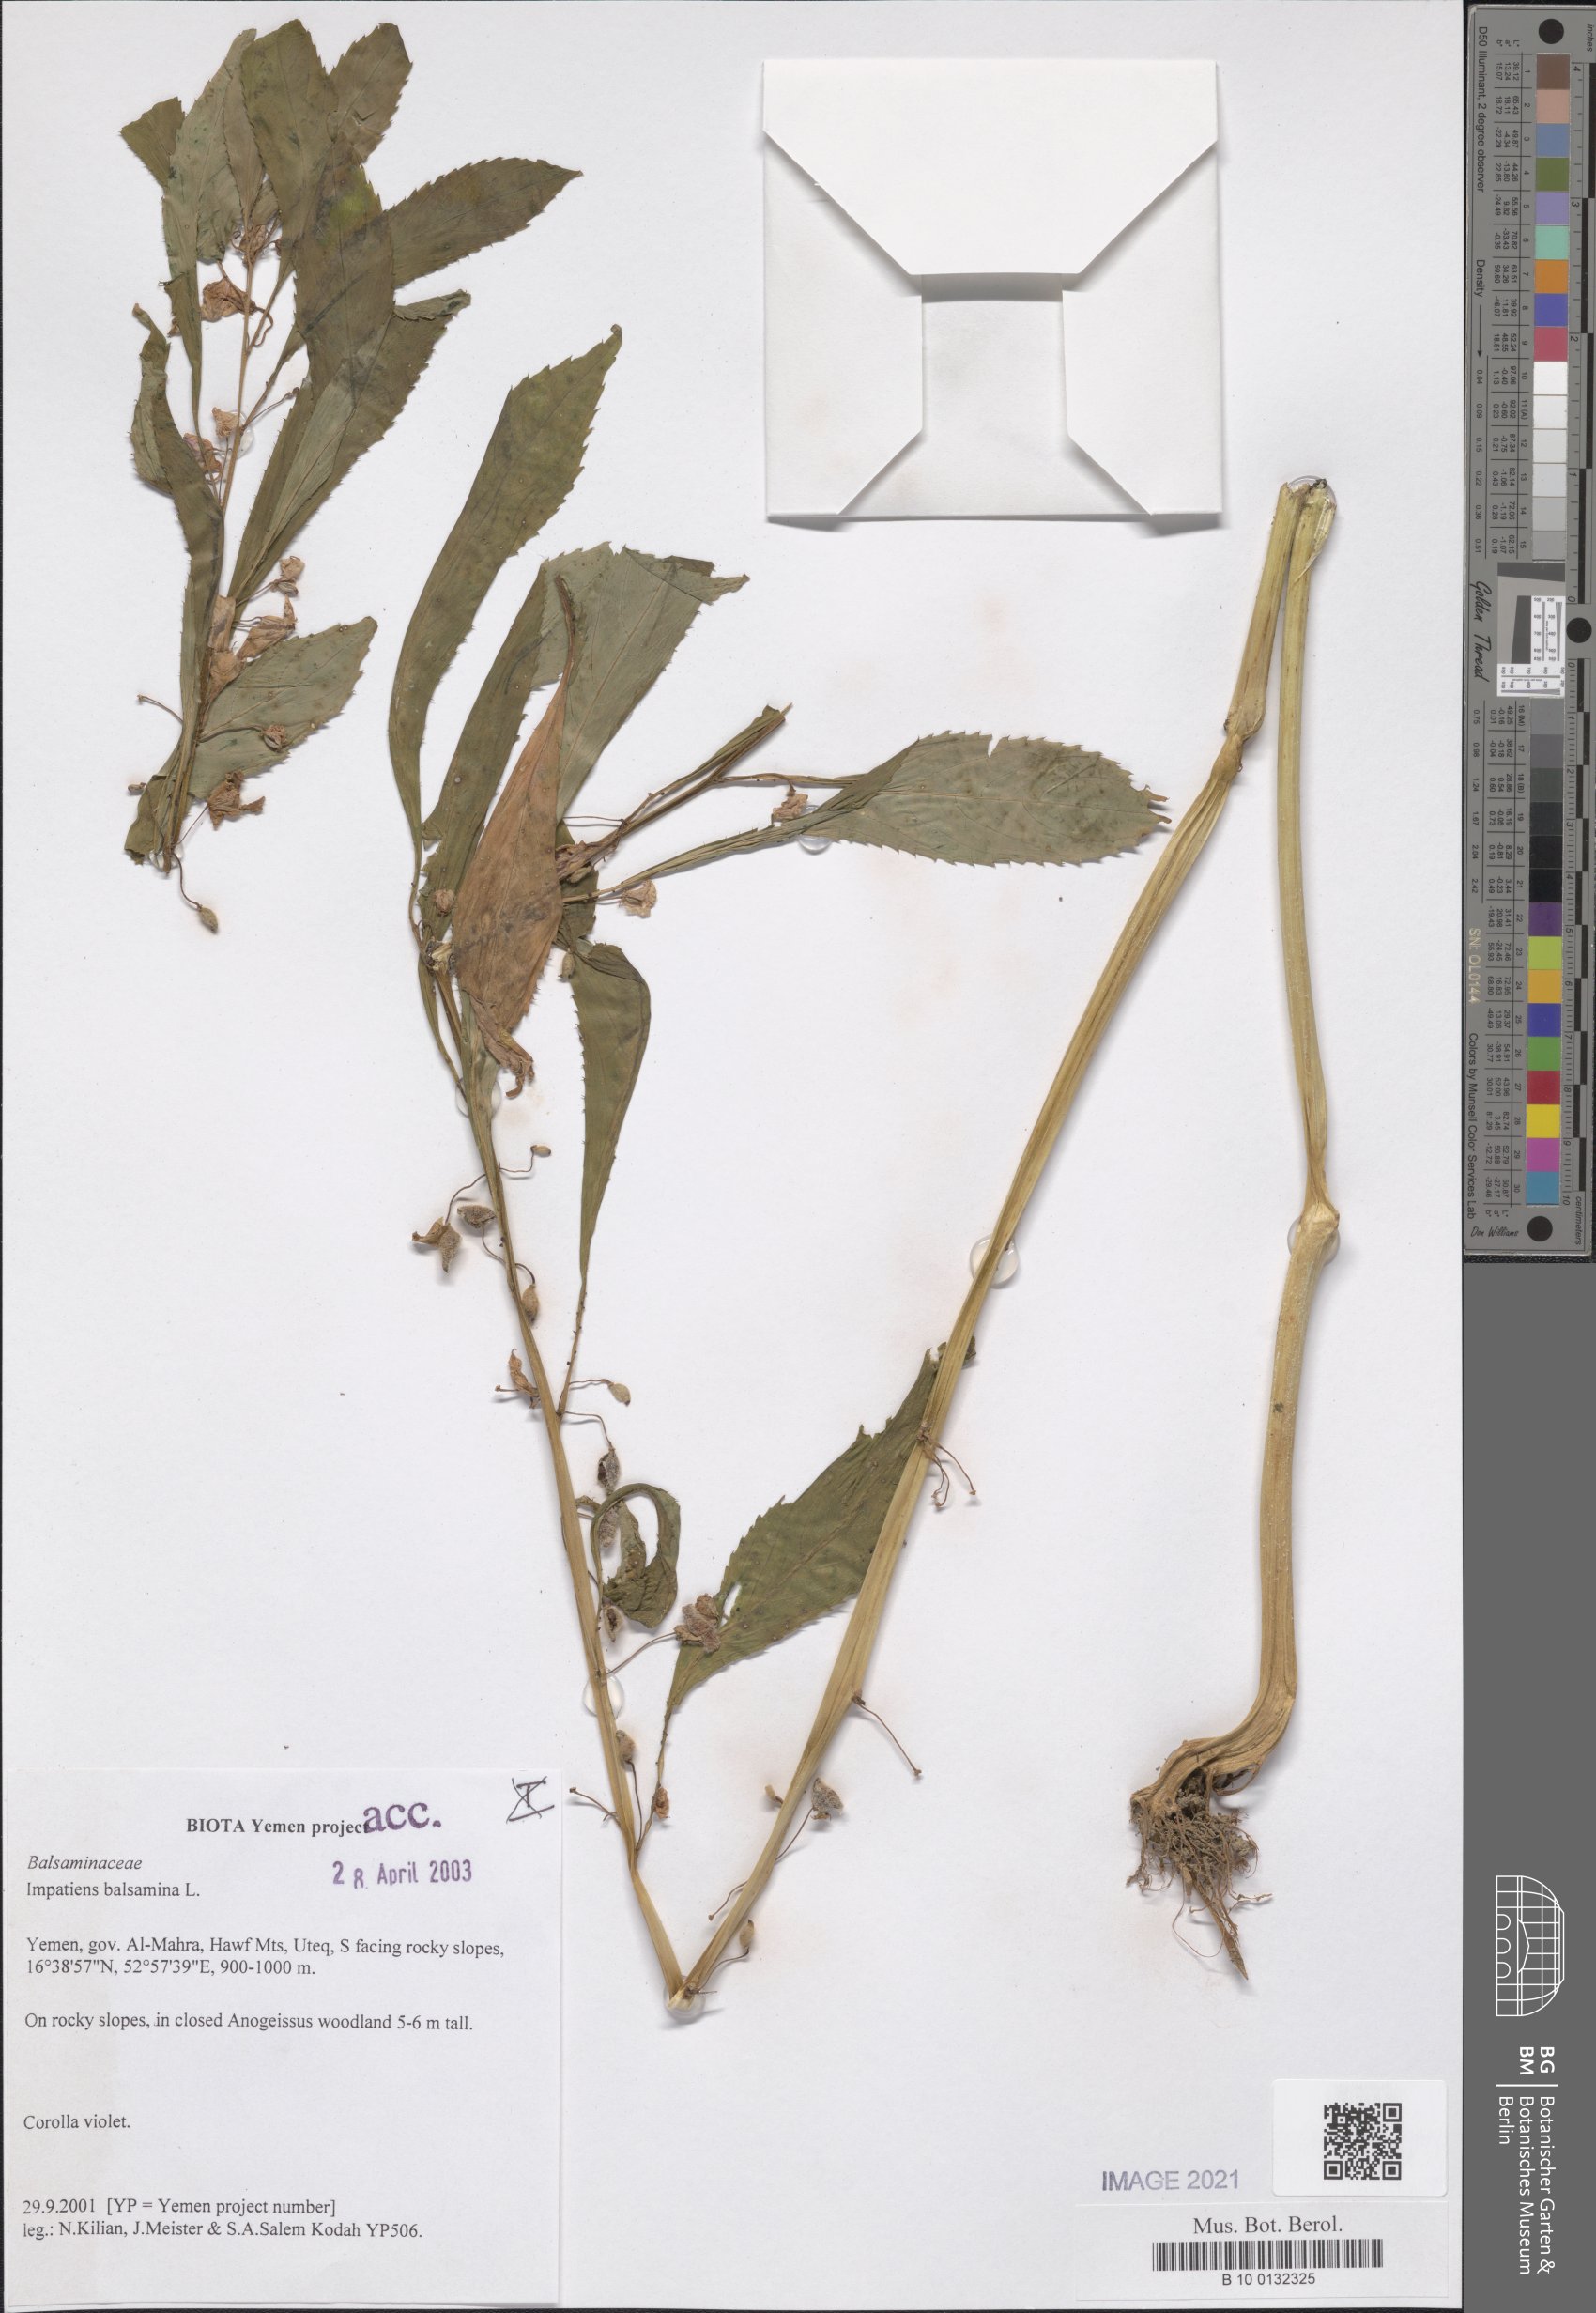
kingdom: Plantae
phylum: Tracheophyta
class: Magnoliopsida
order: Ericales
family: Balsaminaceae
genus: Impatiens
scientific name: Impatiens balsamina
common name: Balsam
